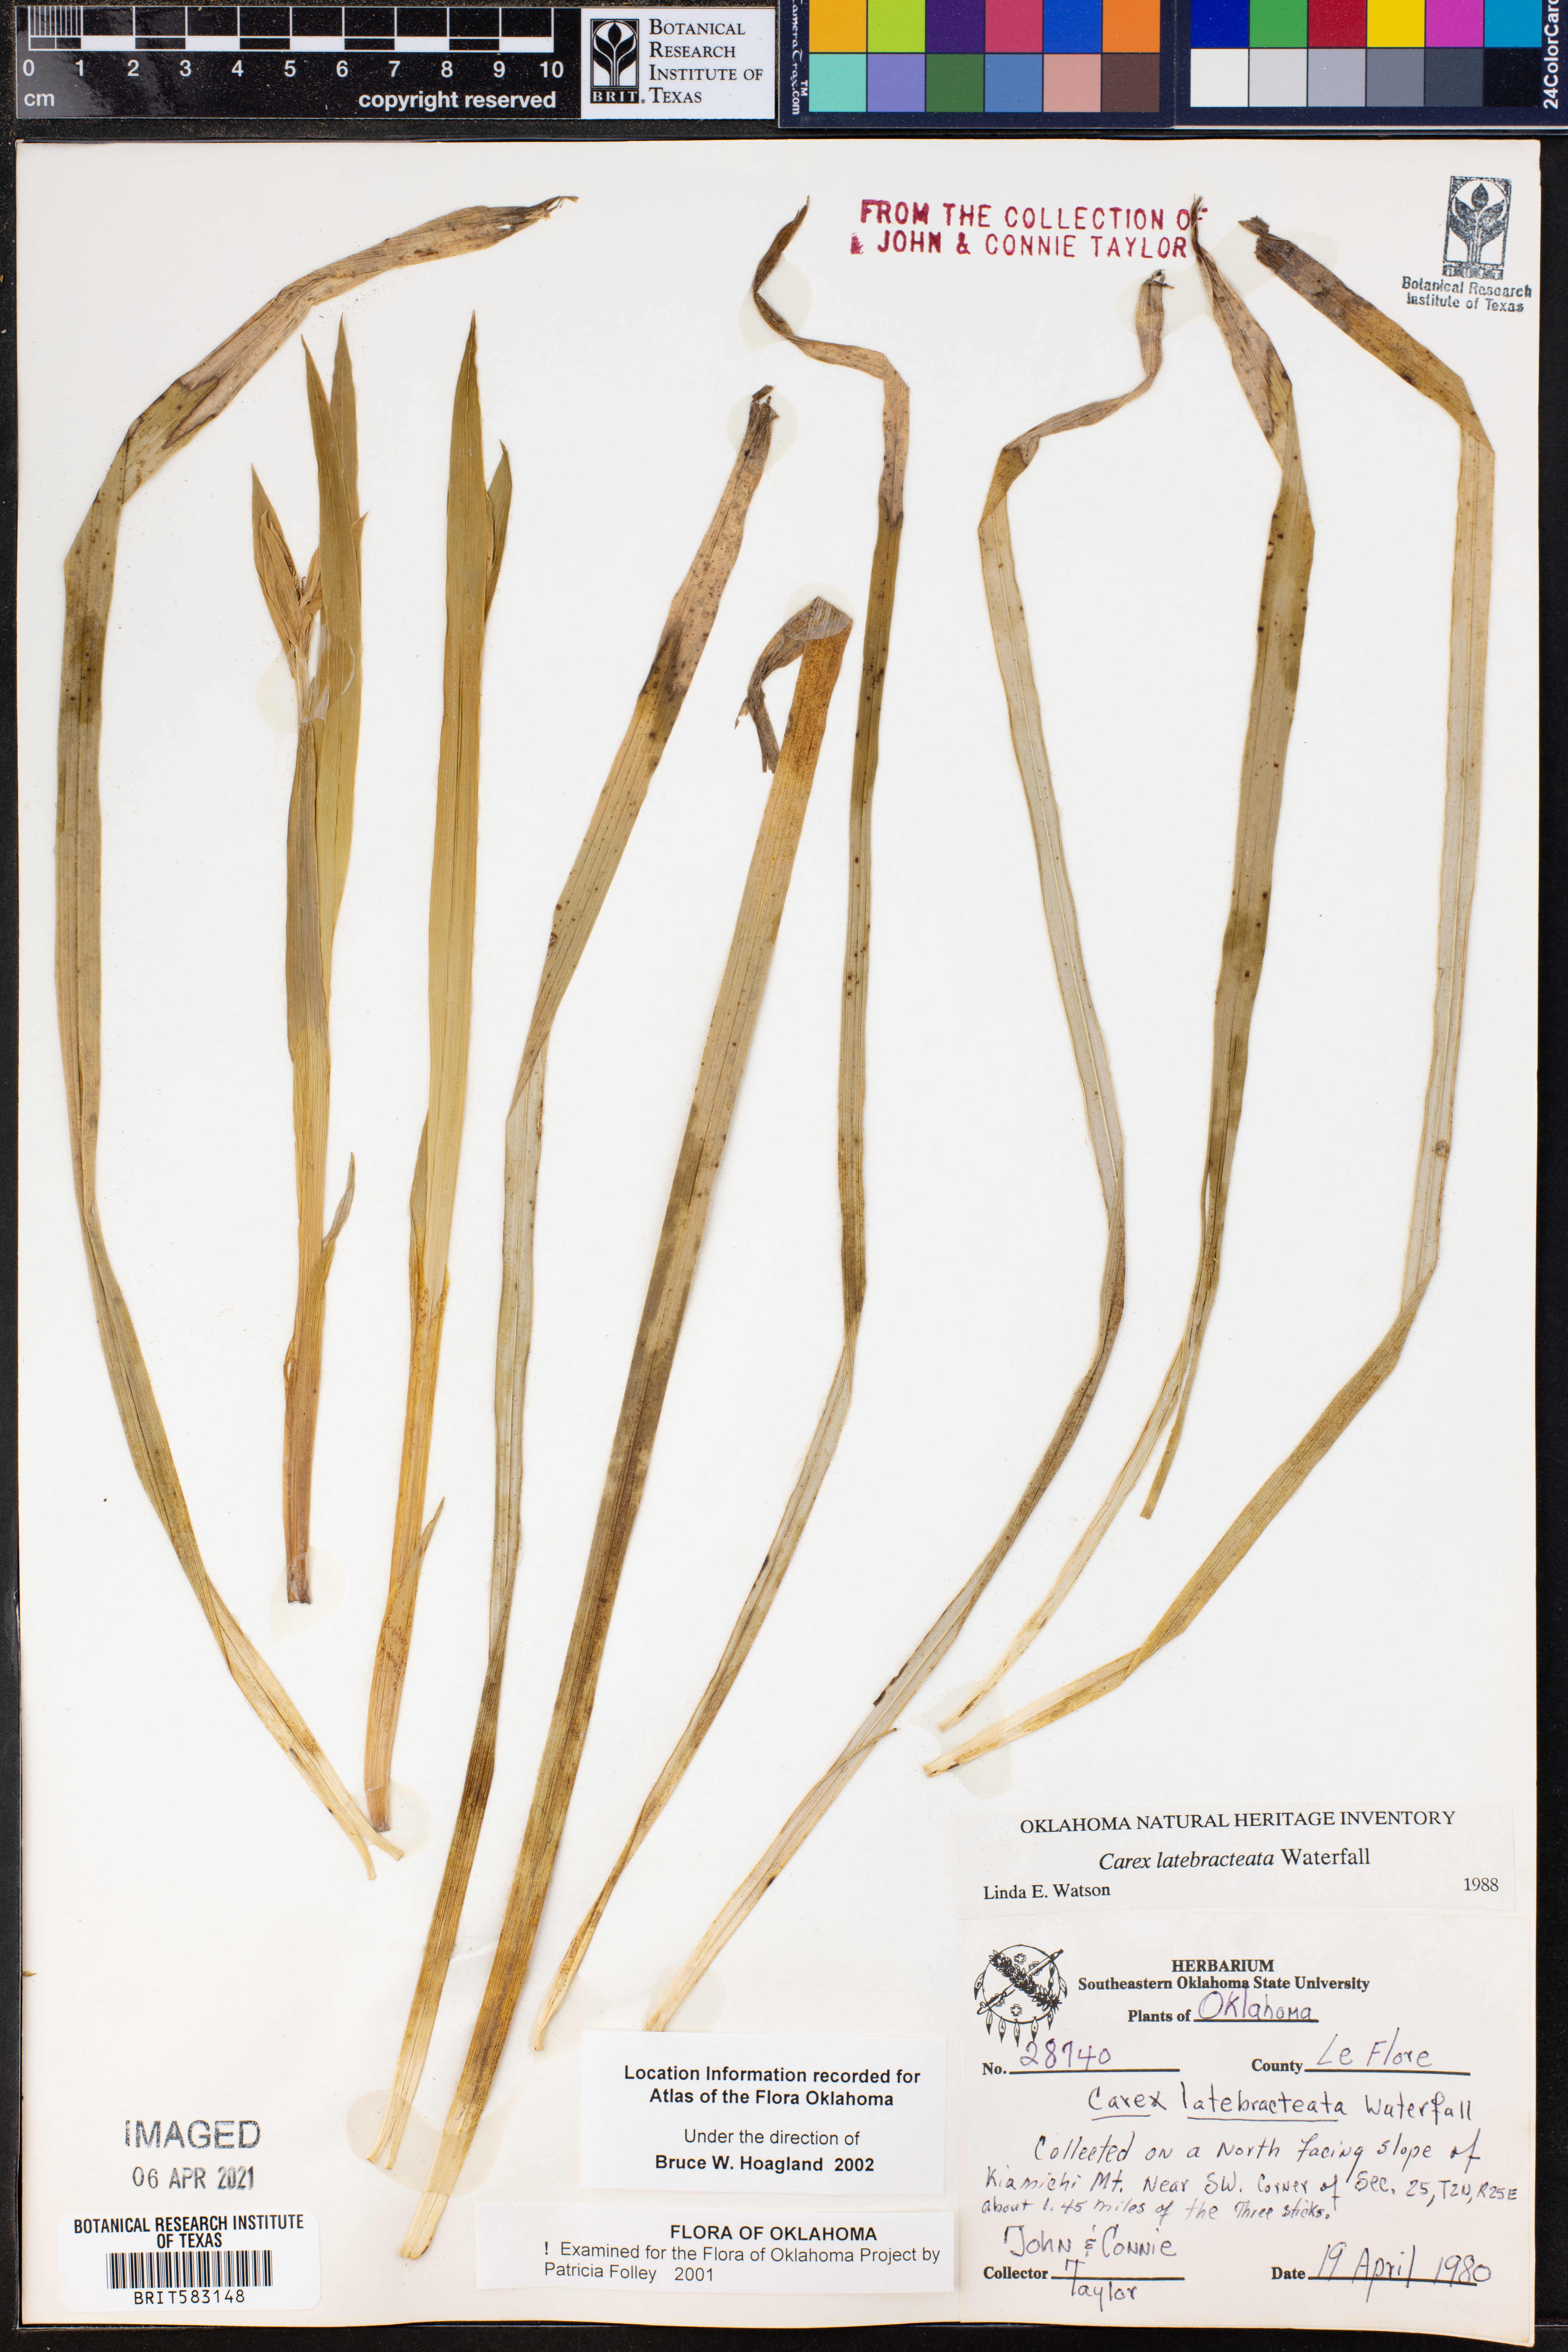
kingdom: Plantae
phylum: Tracheophyta
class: Liliopsida
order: Poales
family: Cyperaceae
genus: Carex
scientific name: Carex latebracteata
